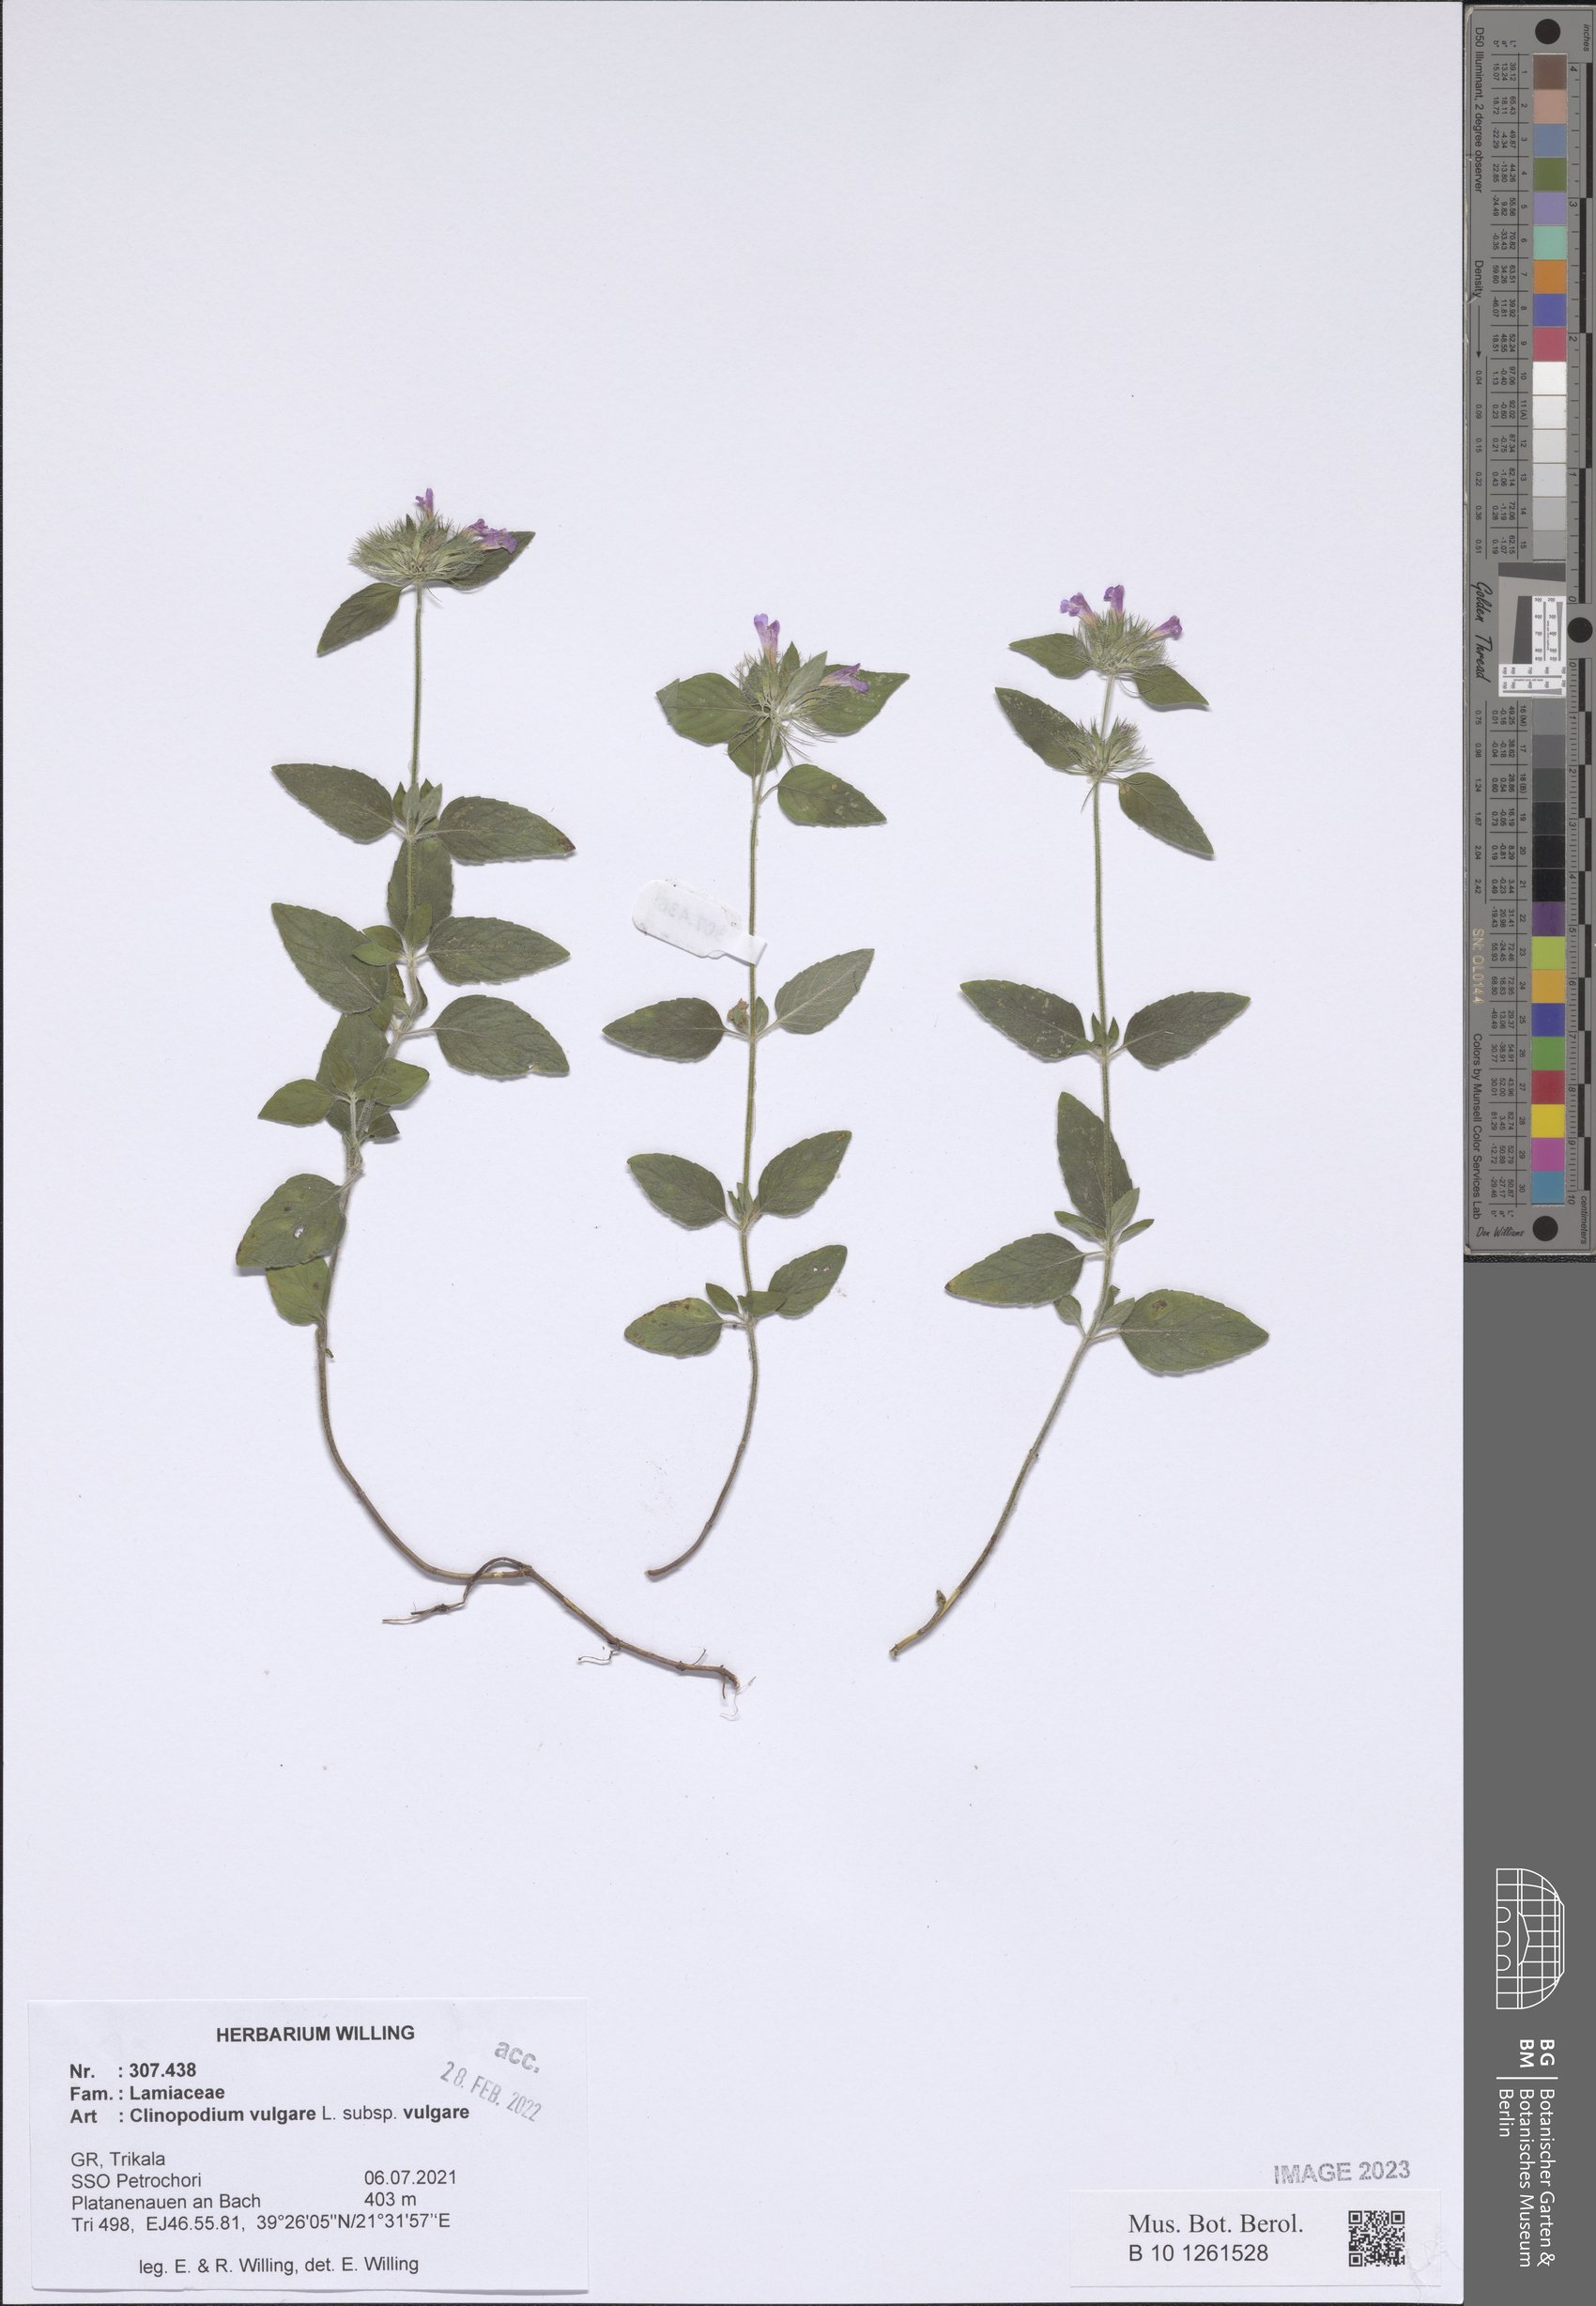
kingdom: Plantae
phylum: Tracheophyta
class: Magnoliopsida
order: Lamiales
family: Lamiaceae
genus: Clinopodium
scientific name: Clinopodium vulgare
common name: Wild basil
